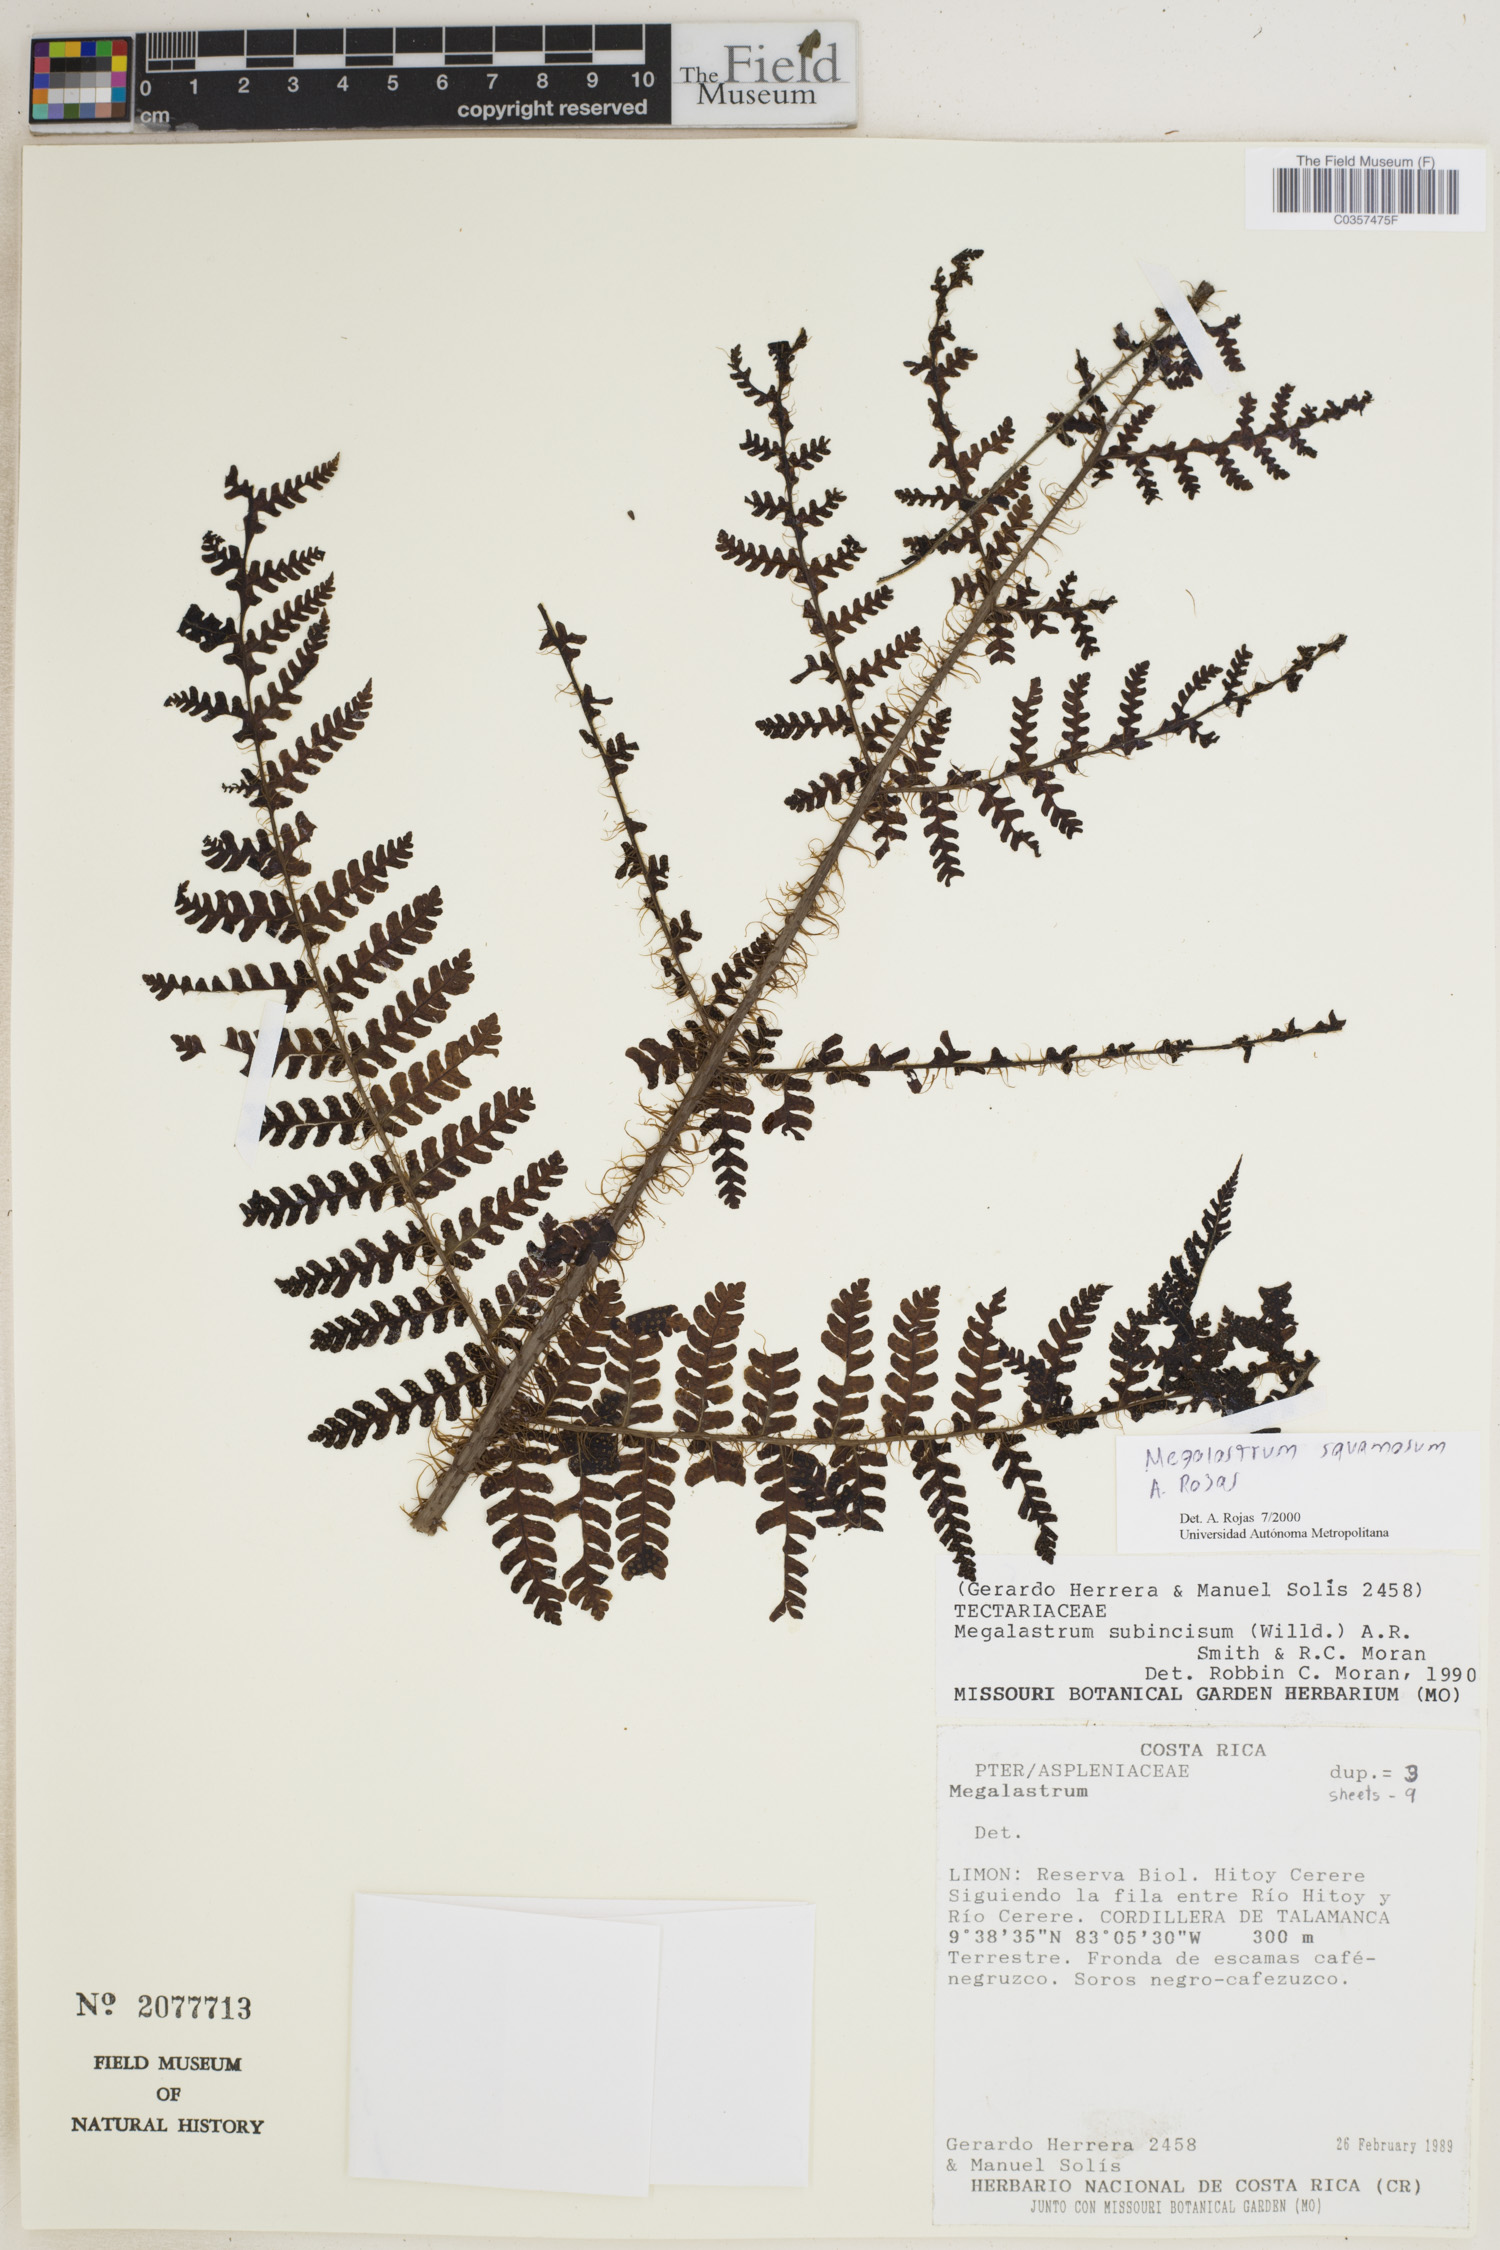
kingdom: Plantae
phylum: Tracheophyta
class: Polypodiopsida
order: Polypodiales
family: Dryopteridaceae
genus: Megalastrum
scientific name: Megalastrum squamosum
